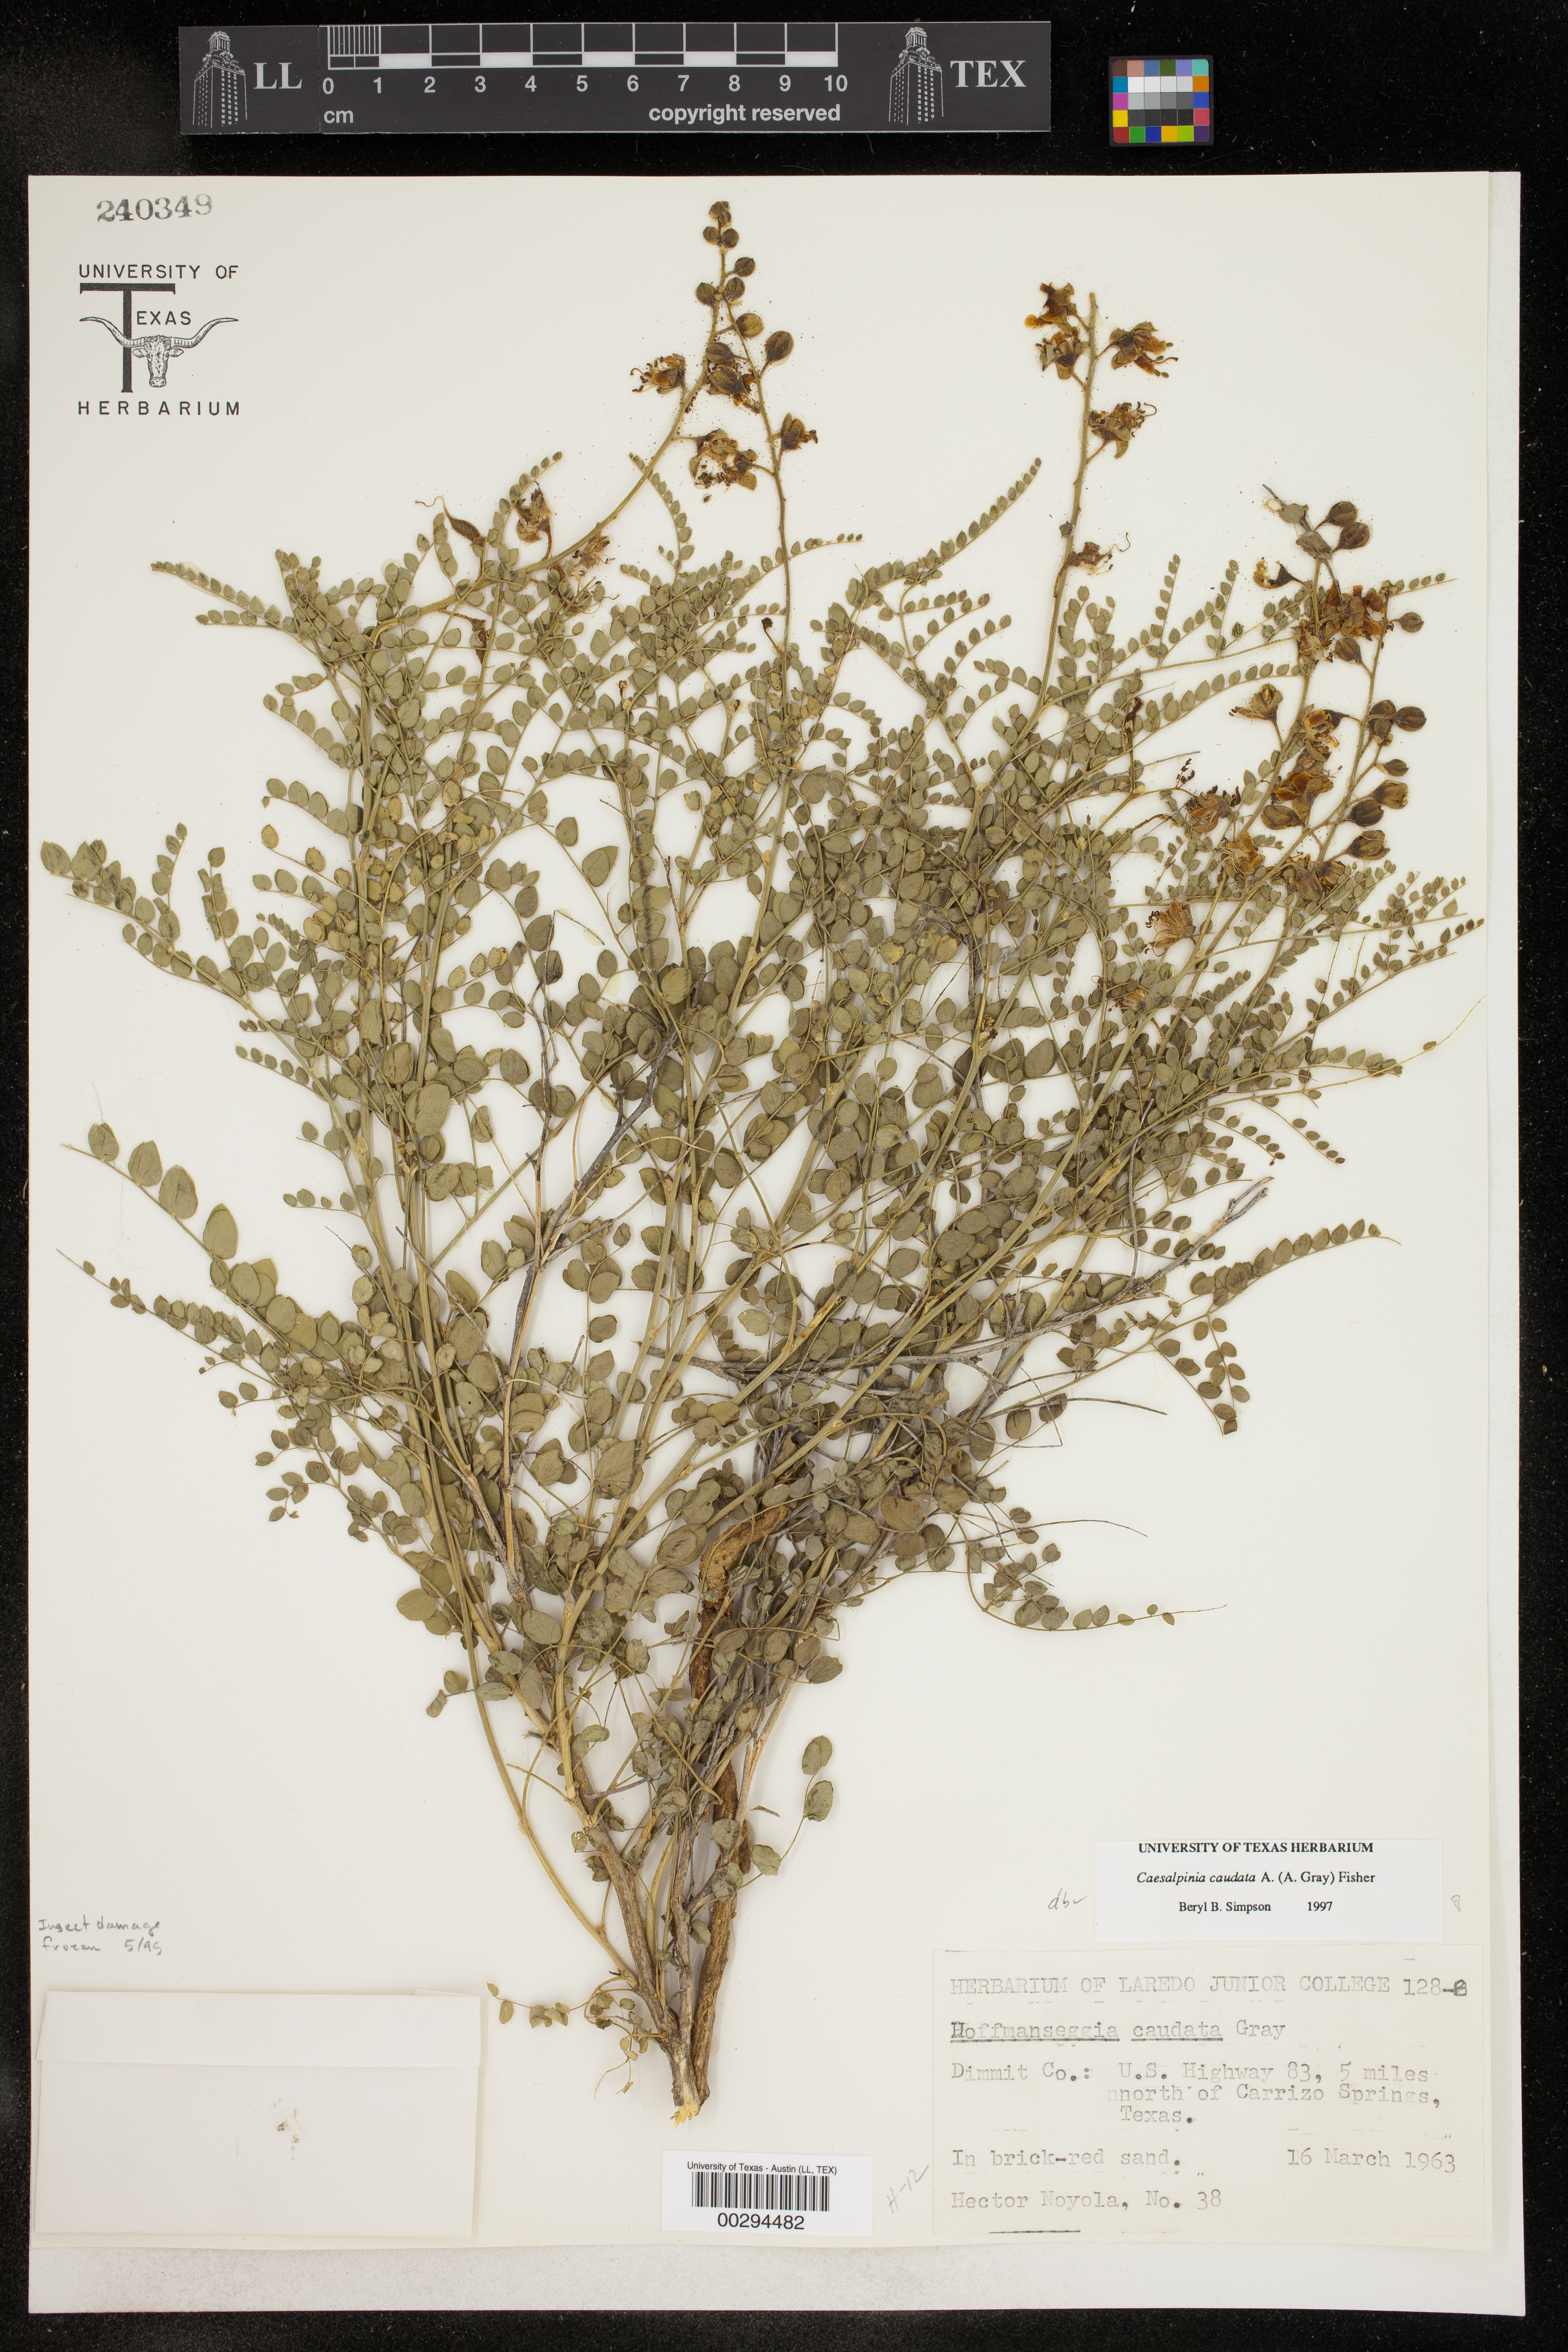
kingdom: Plantae
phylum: Tracheophyta
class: Magnoliopsida
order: Fabales
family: Fabaceae
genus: Erythrostemon
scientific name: Erythrostemon caudatus
